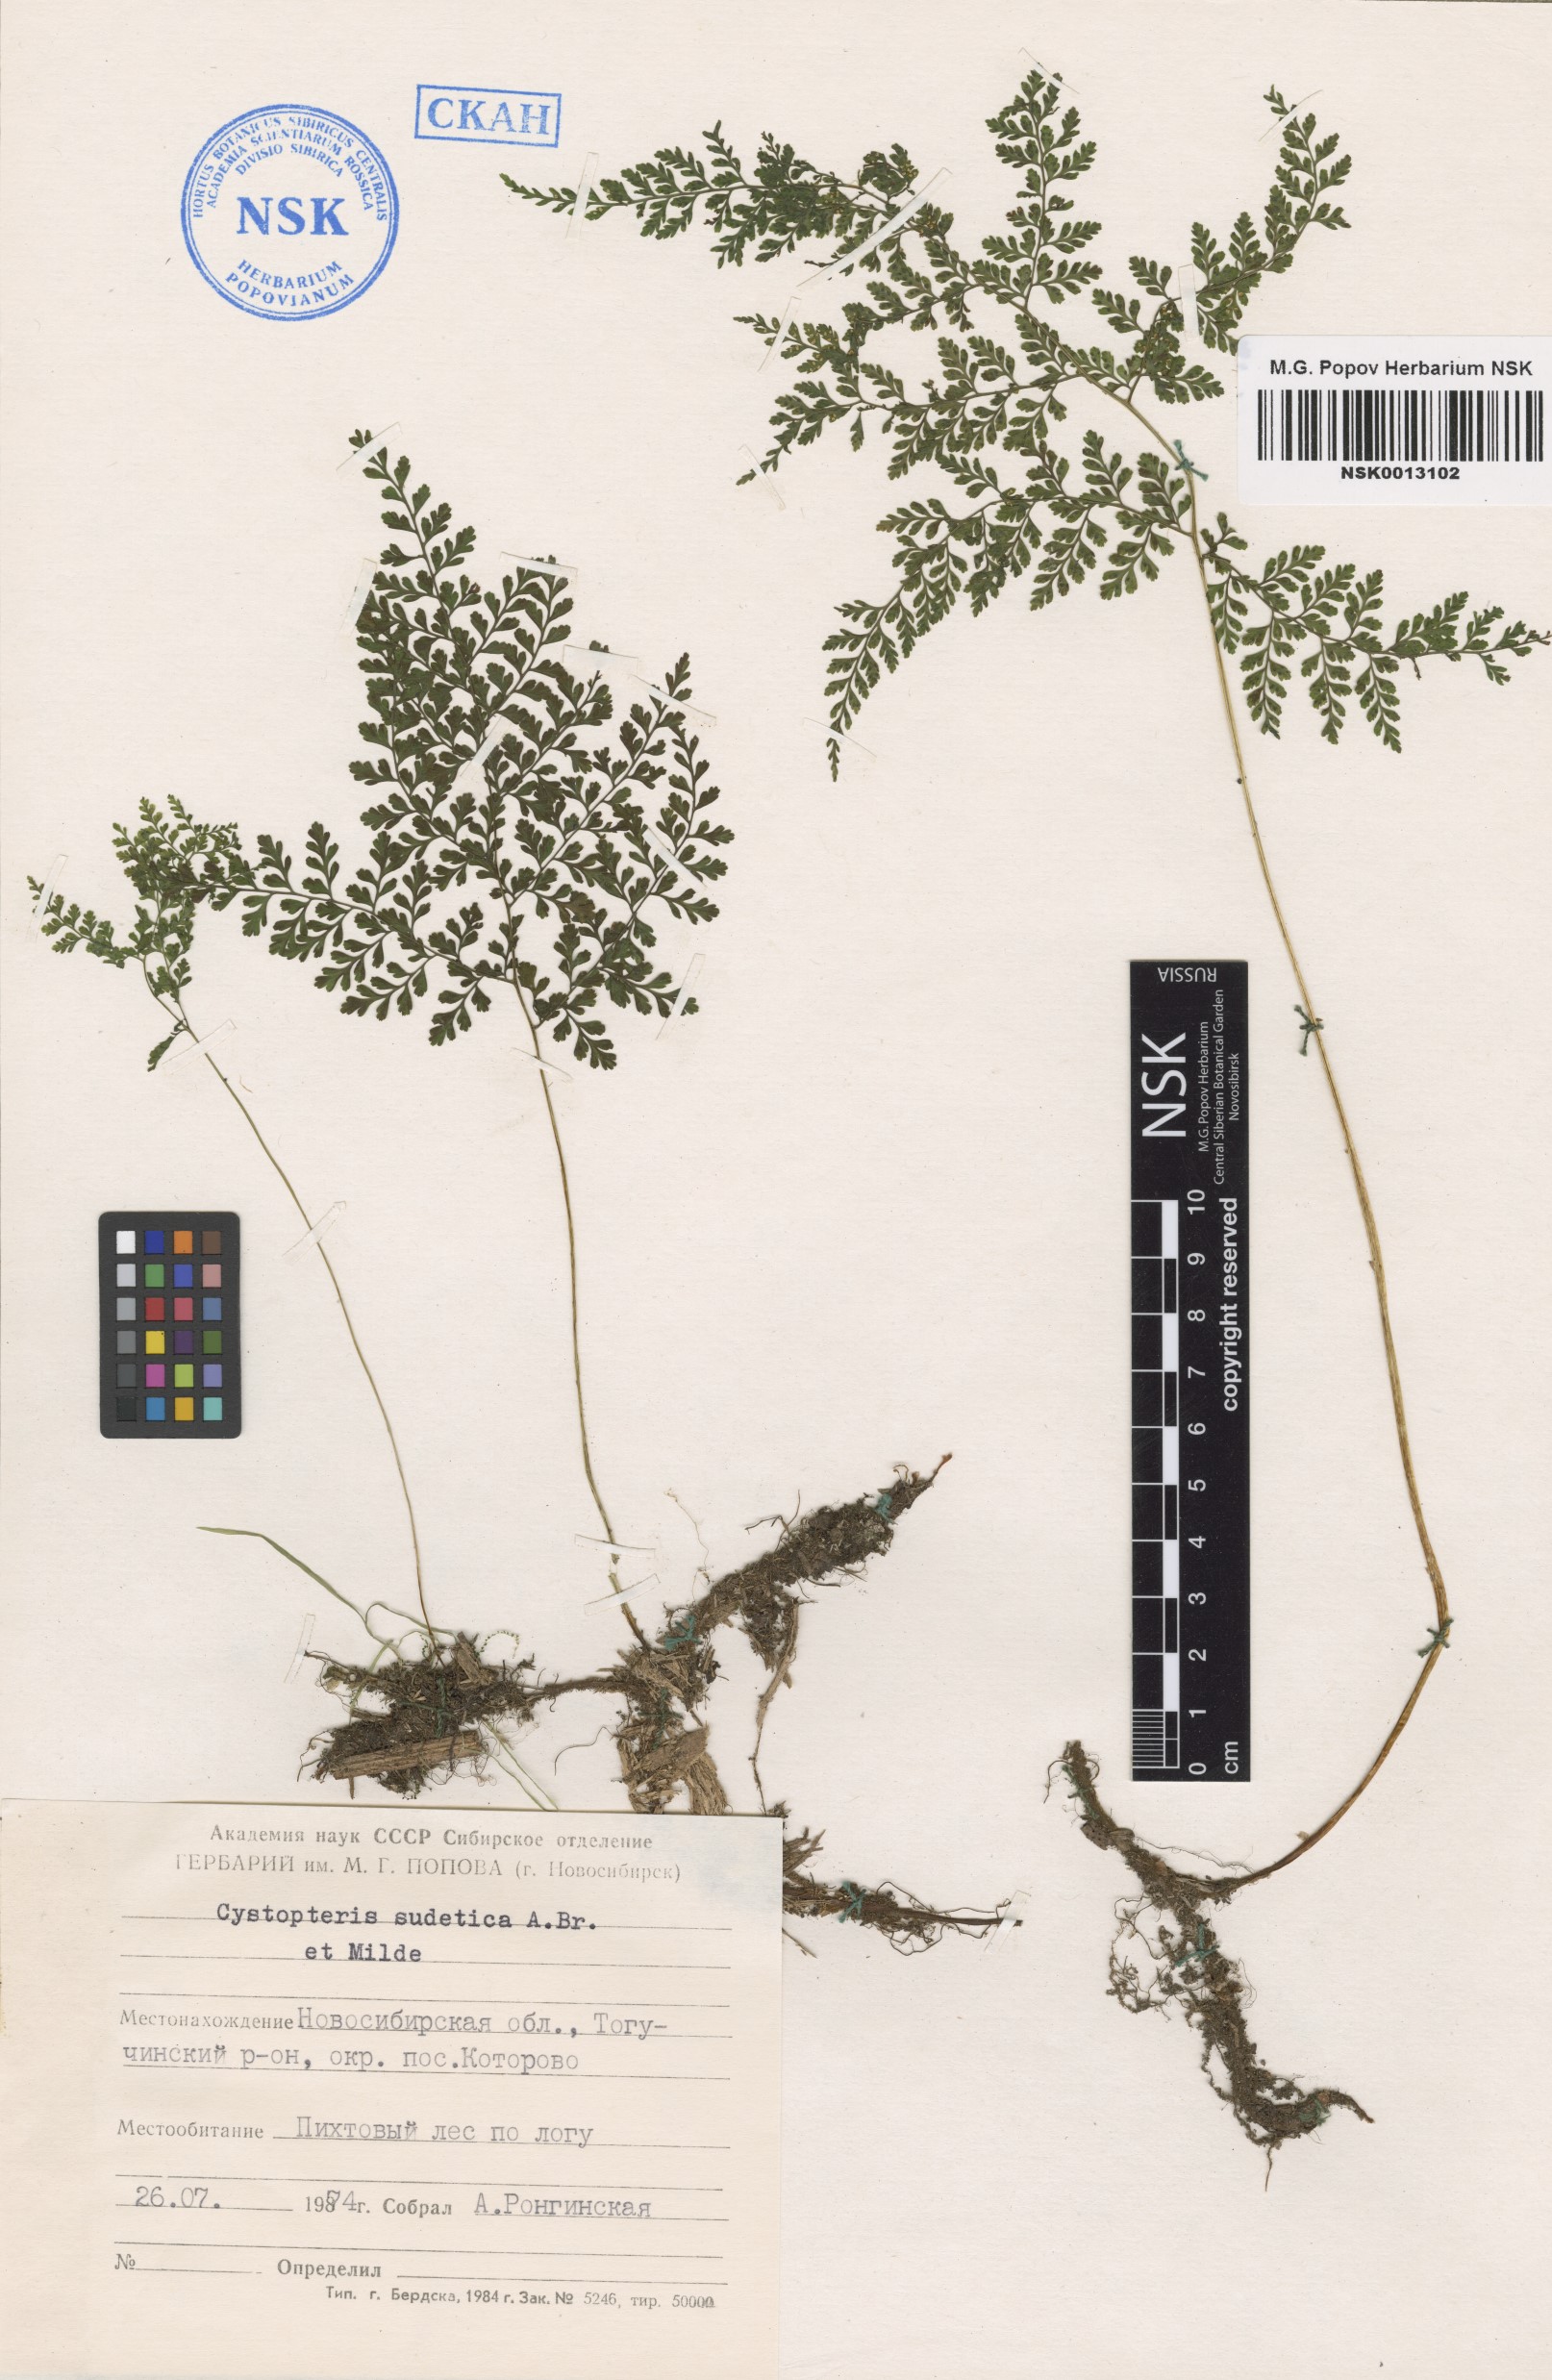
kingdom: Plantae
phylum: Tracheophyta
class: Polypodiopsida
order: Polypodiales
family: Cystopteridaceae
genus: Cystopteris
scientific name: Cystopteris sudetica
